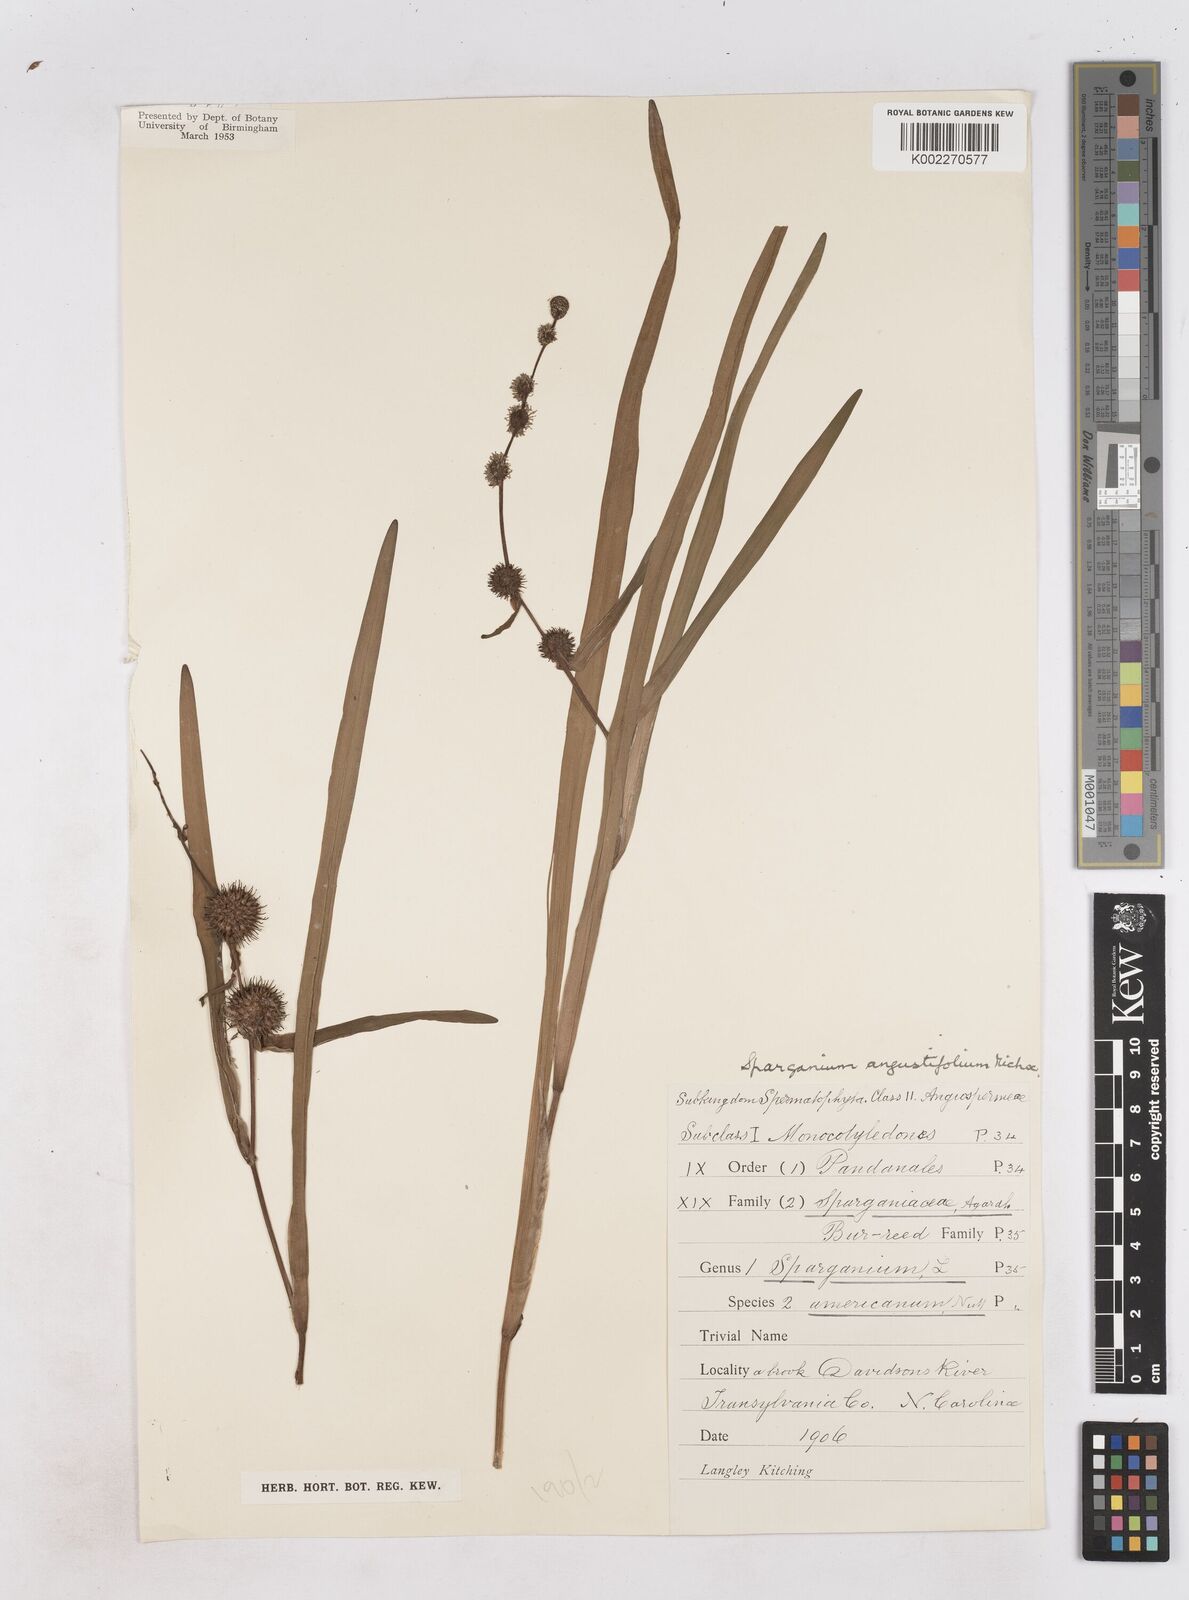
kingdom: Plantae
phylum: Tracheophyta
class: Liliopsida
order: Poales
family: Typhaceae
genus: Sparganium
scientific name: Sparganium angustifolium
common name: Floating bur-reed
